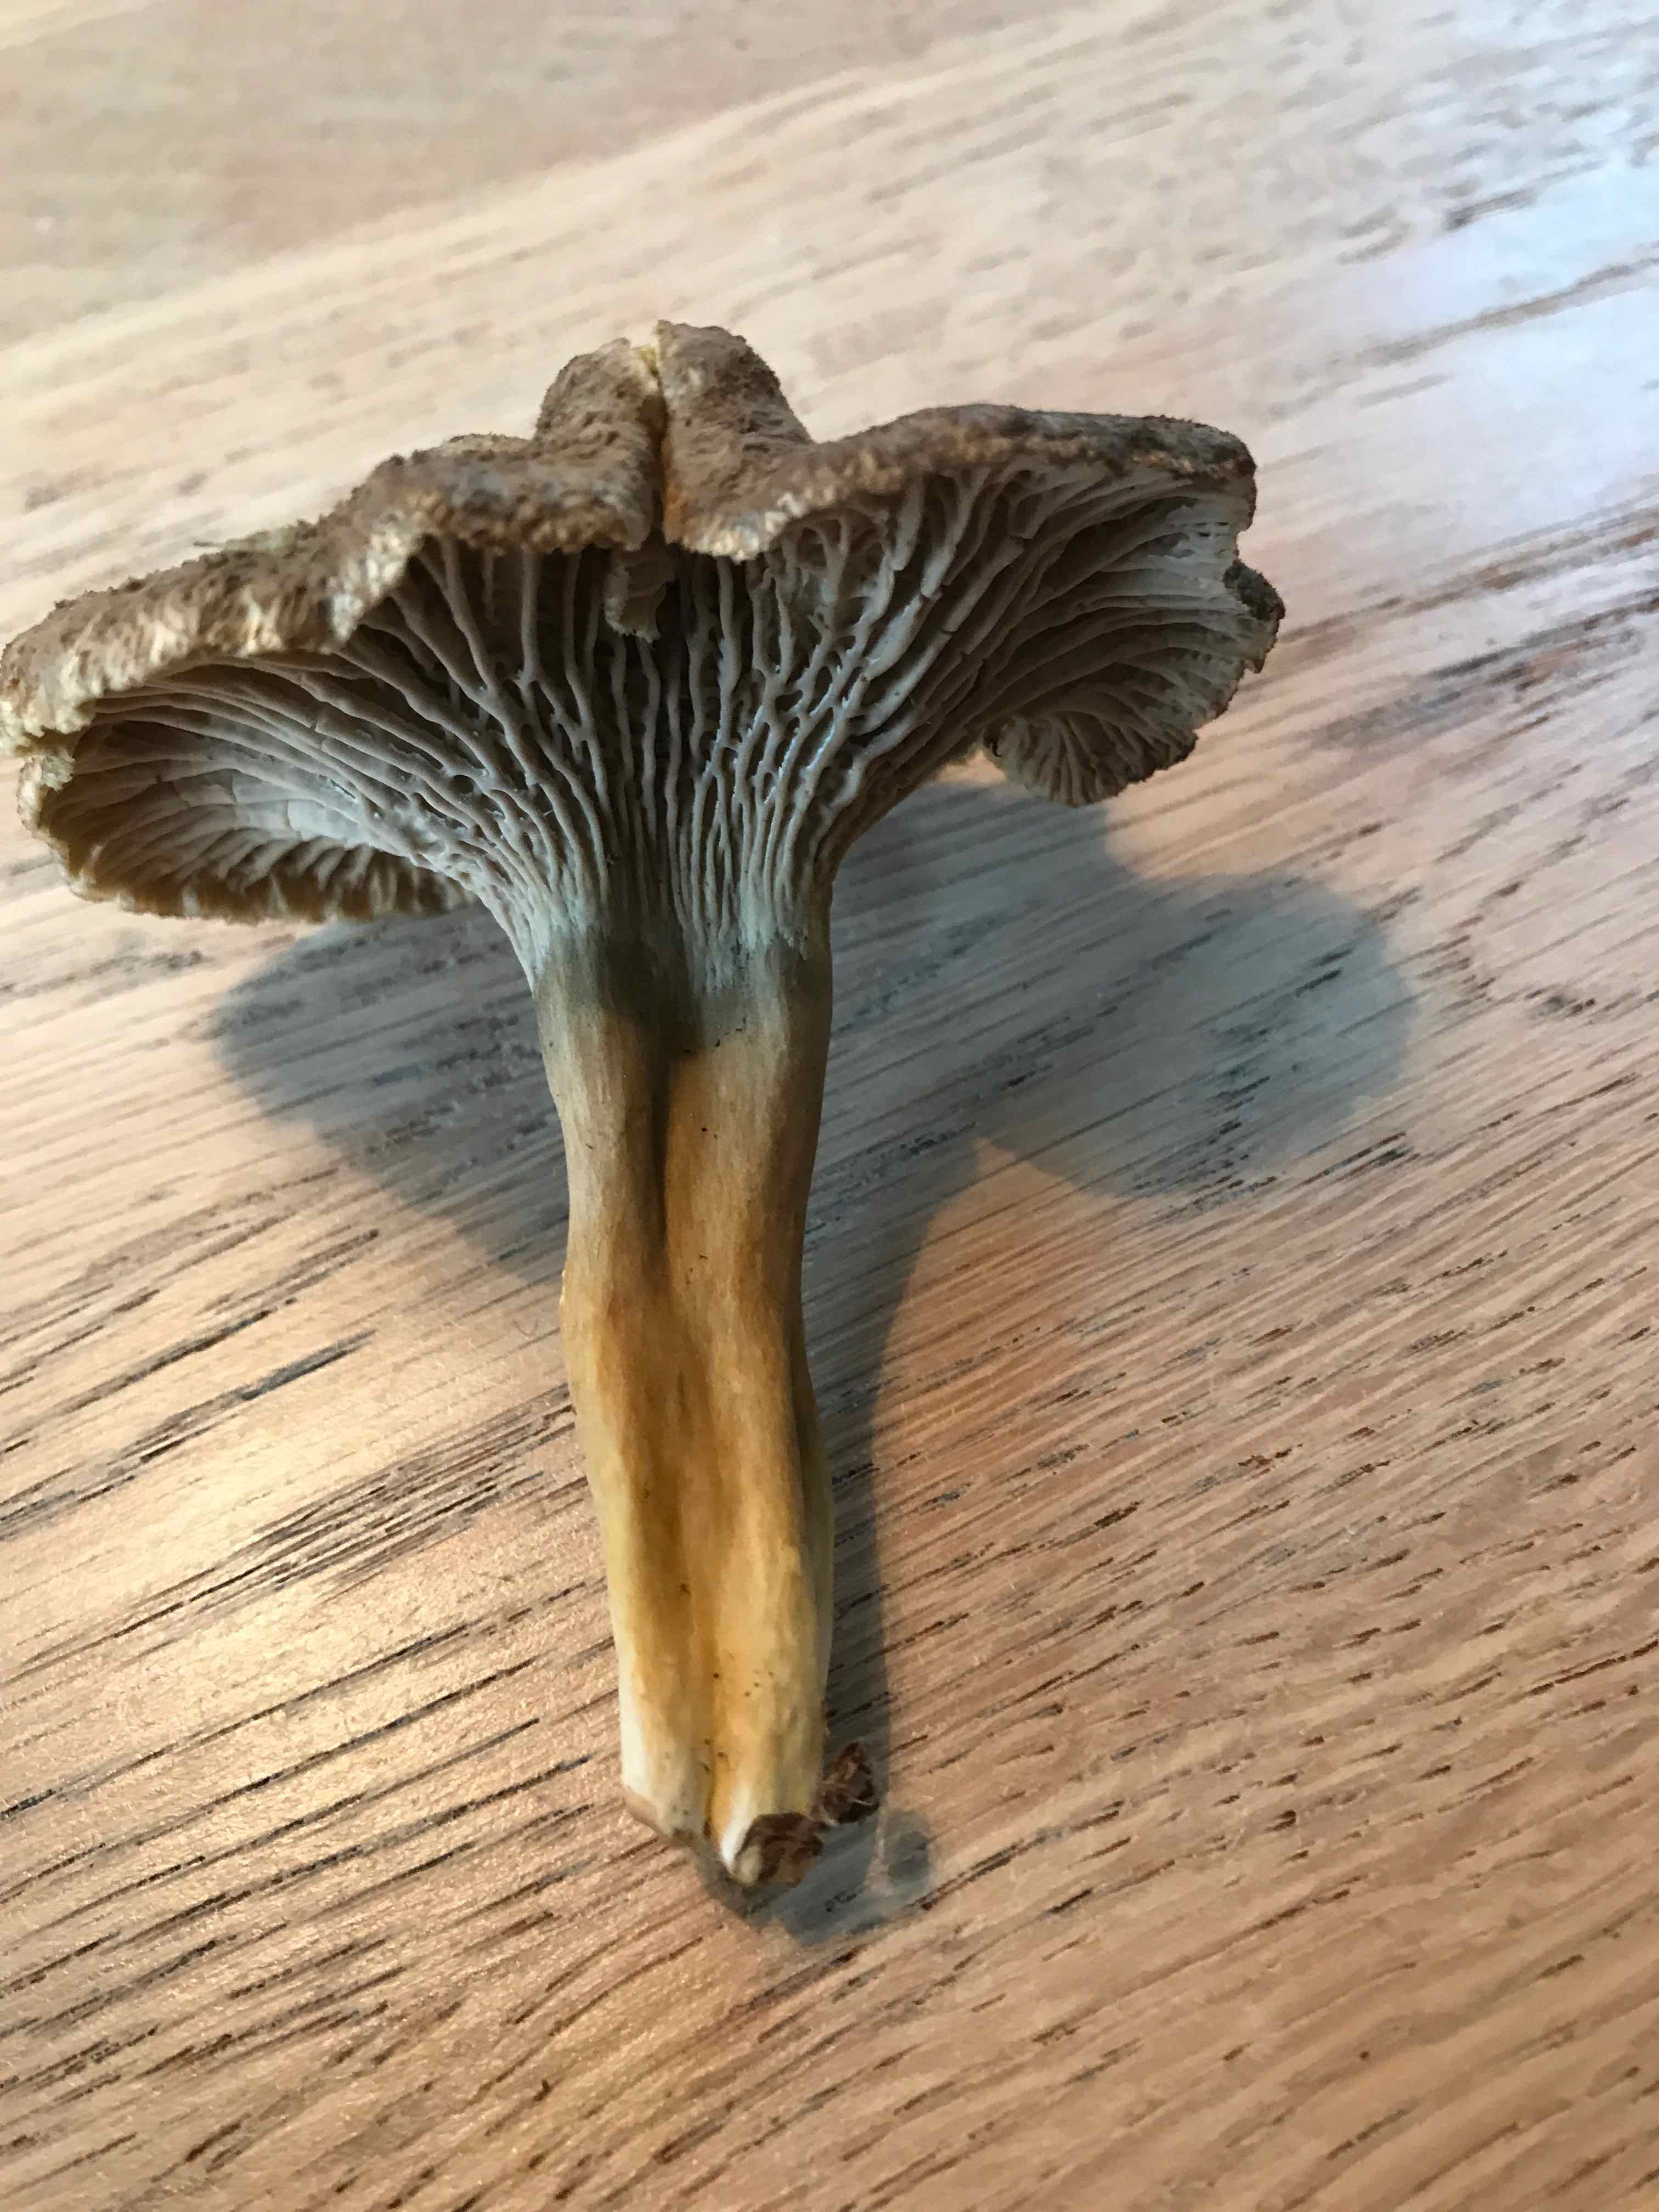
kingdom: Fungi
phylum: Basidiomycota
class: Agaricomycetes
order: Cantharellales
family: Hydnaceae
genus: Craterellus
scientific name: Craterellus tubaeformis
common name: tragt-kantarel
